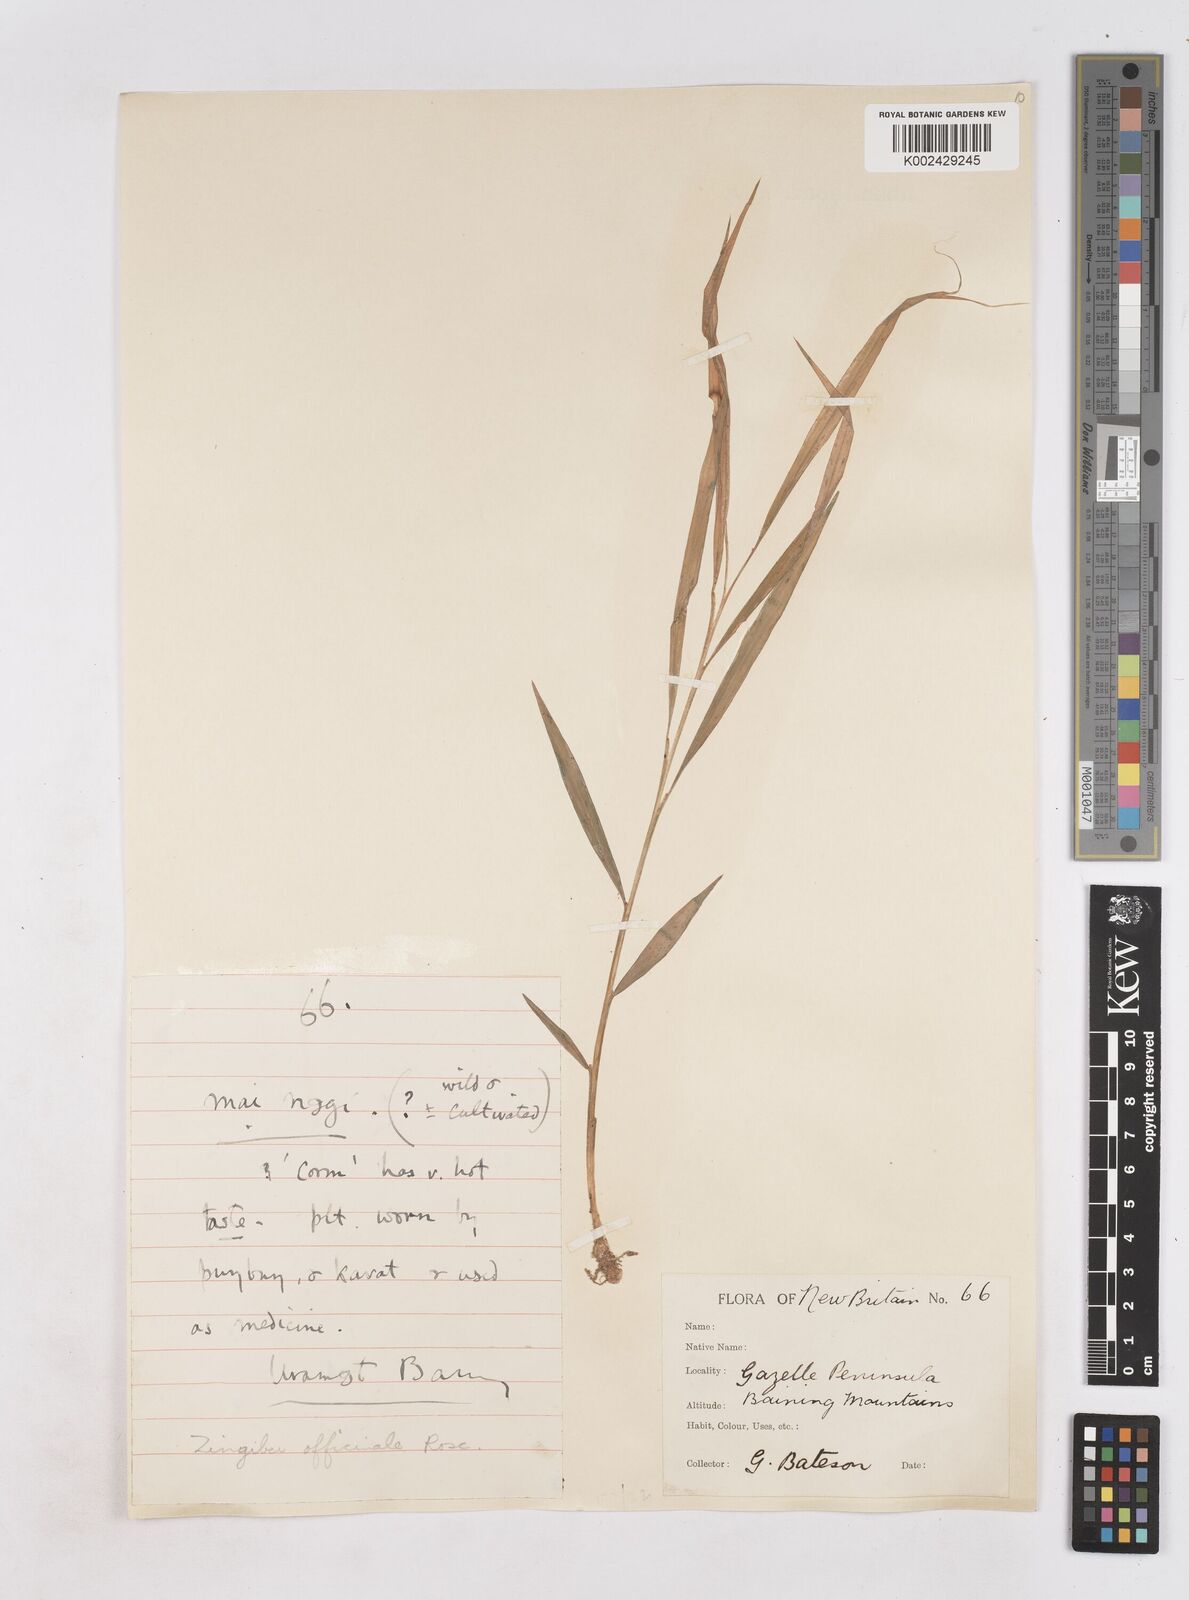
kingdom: Plantae
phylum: Tracheophyta
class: Liliopsida
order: Zingiberales
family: Zingiberaceae
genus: Zingiber
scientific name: Zingiber officinale
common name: Ginger
